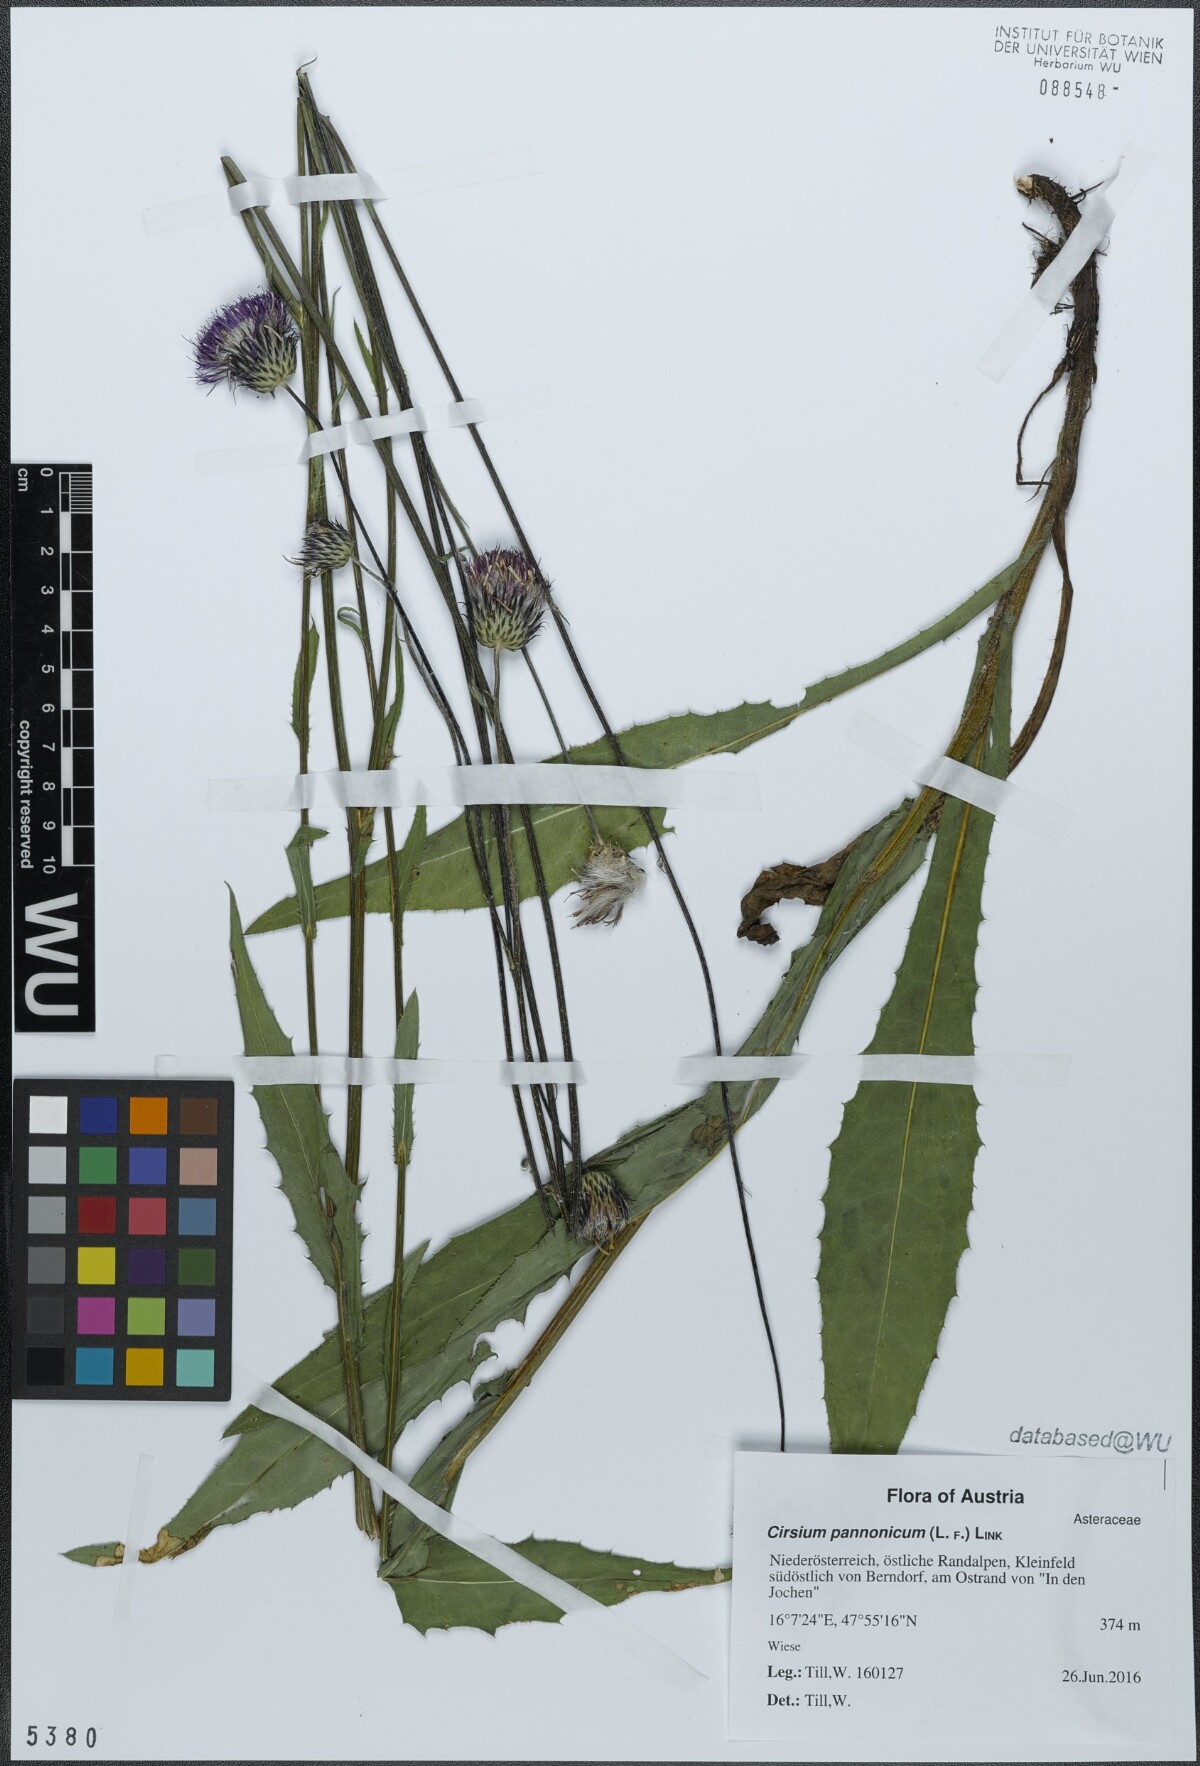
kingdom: Plantae
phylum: Tracheophyta
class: Magnoliopsida
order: Asterales
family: Asteraceae
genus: Cirsium
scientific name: Cirsium pannonicum
